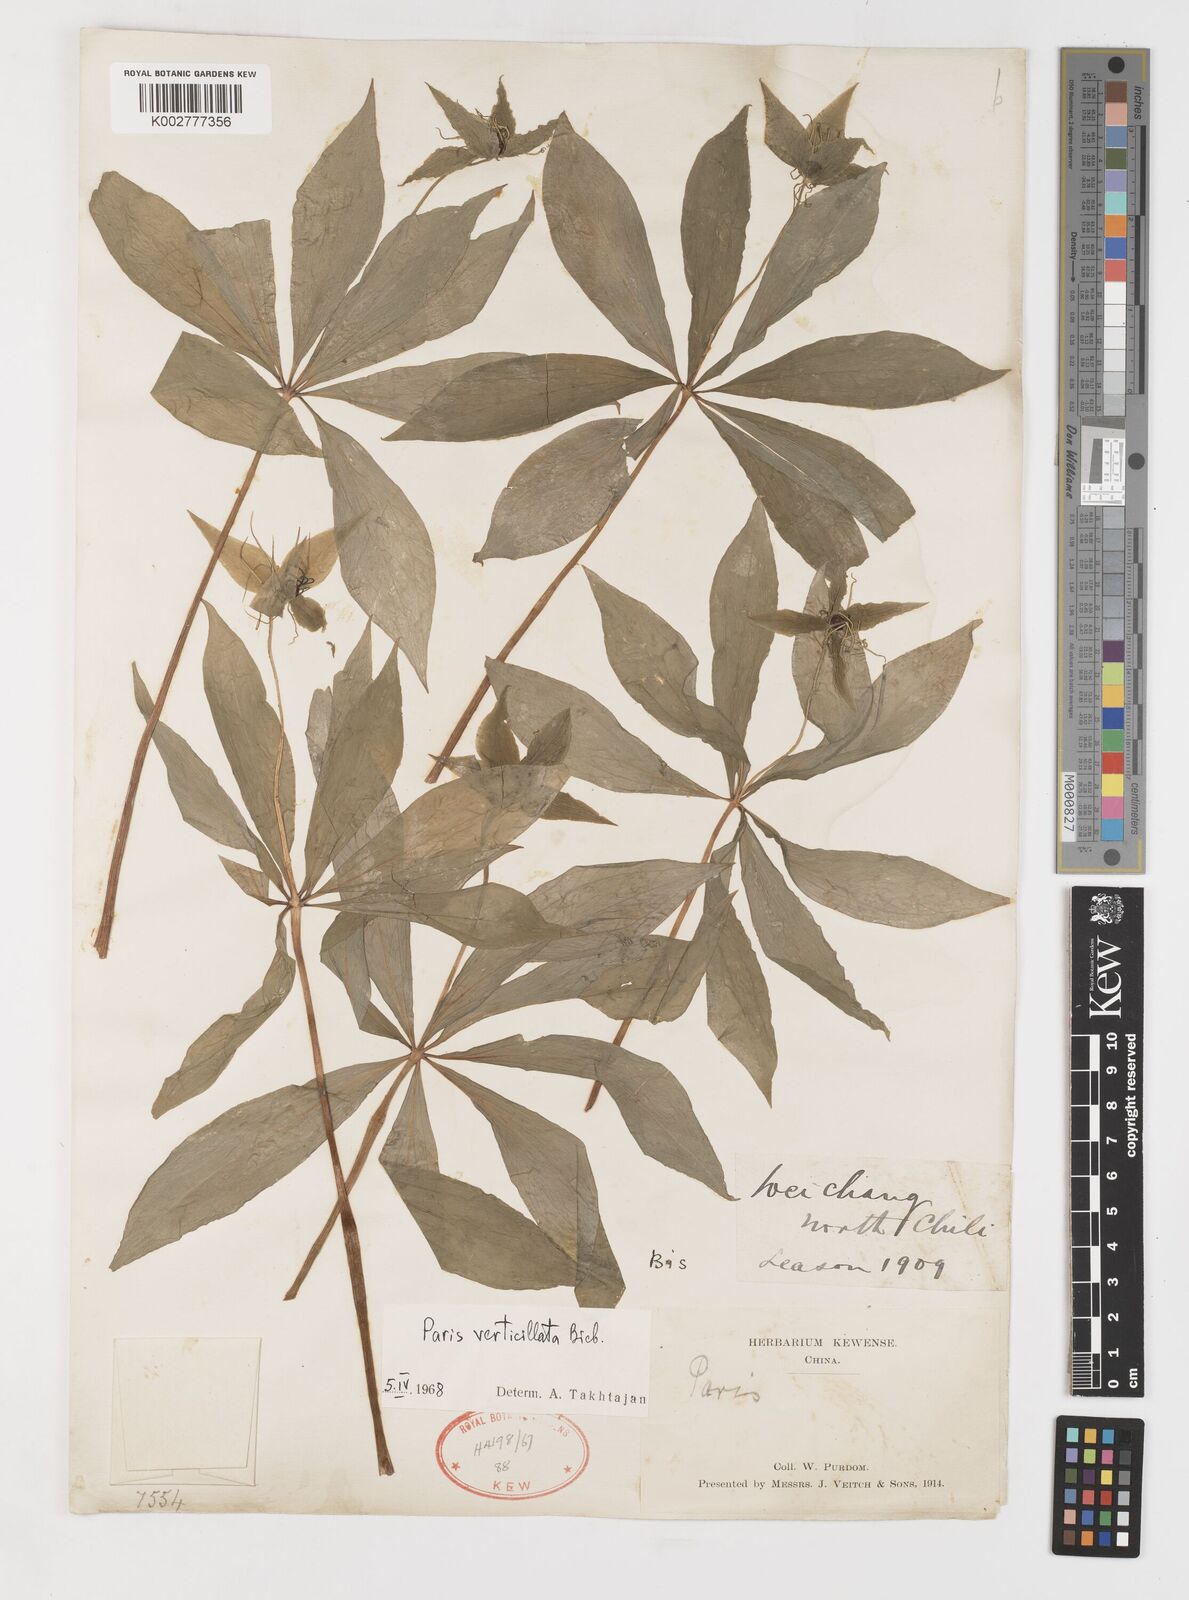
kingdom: Plantae
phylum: Tracheophyta
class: Liliopsida
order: Liliales
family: Melanthiaceae
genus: Paris
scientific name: Paris verticillata
